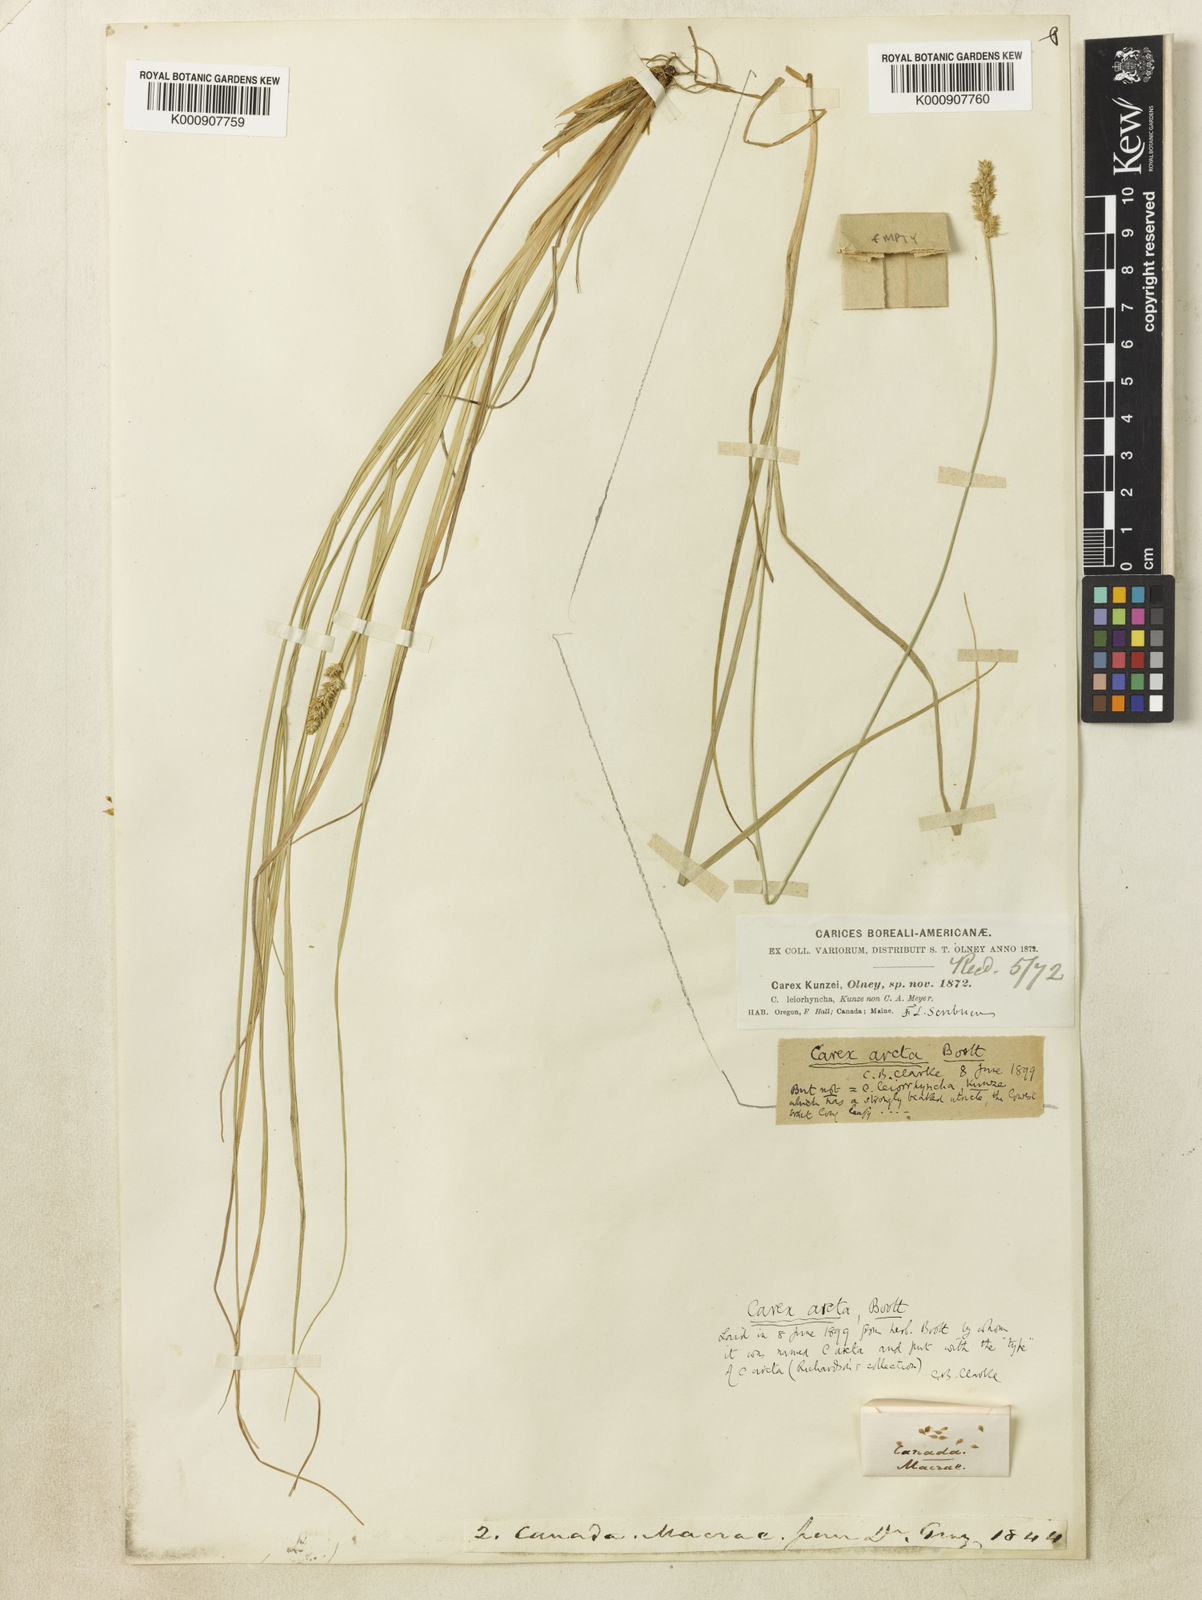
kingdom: Plantae
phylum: Tracheophyta
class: Liliopsida
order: Poales
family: Cyperaceae
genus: Carex
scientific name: Carex arcta
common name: Bear sedge
